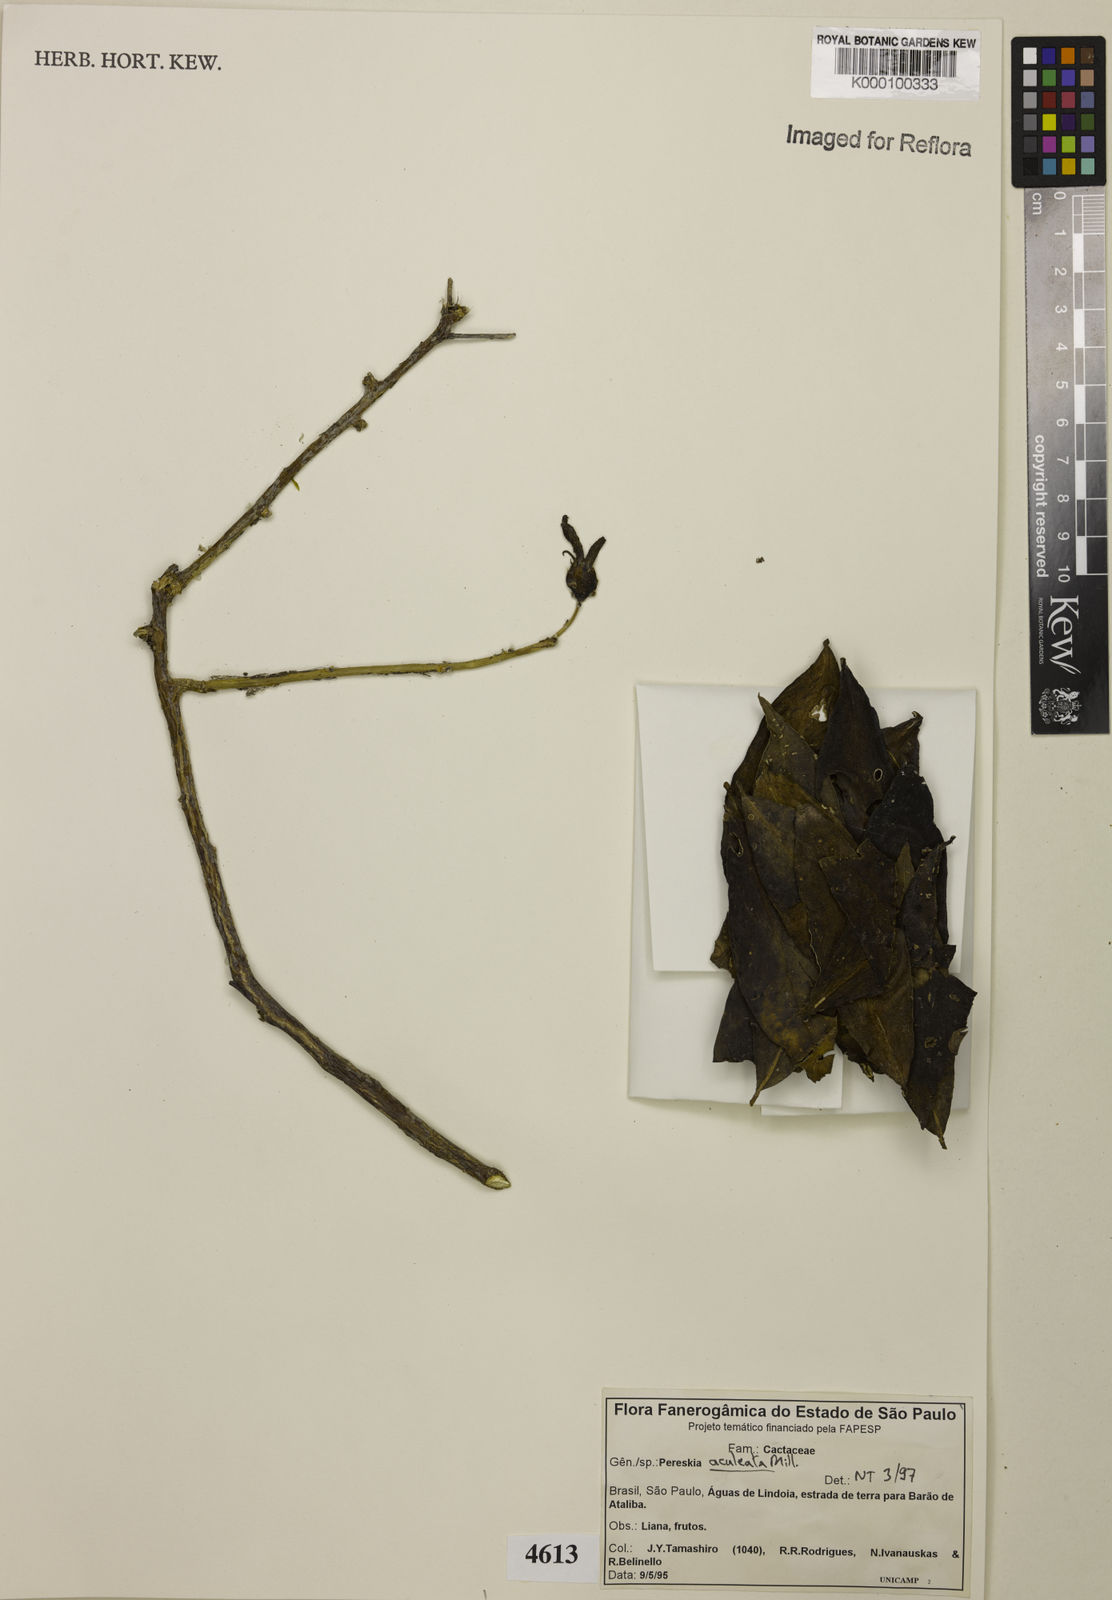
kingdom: Plantae
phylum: Tracheophyta
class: Magnoliopsida
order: Caryophyllales
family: Cactaceae
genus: Pereskia
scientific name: Pereskia aculeata
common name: Barbados gooseberry
